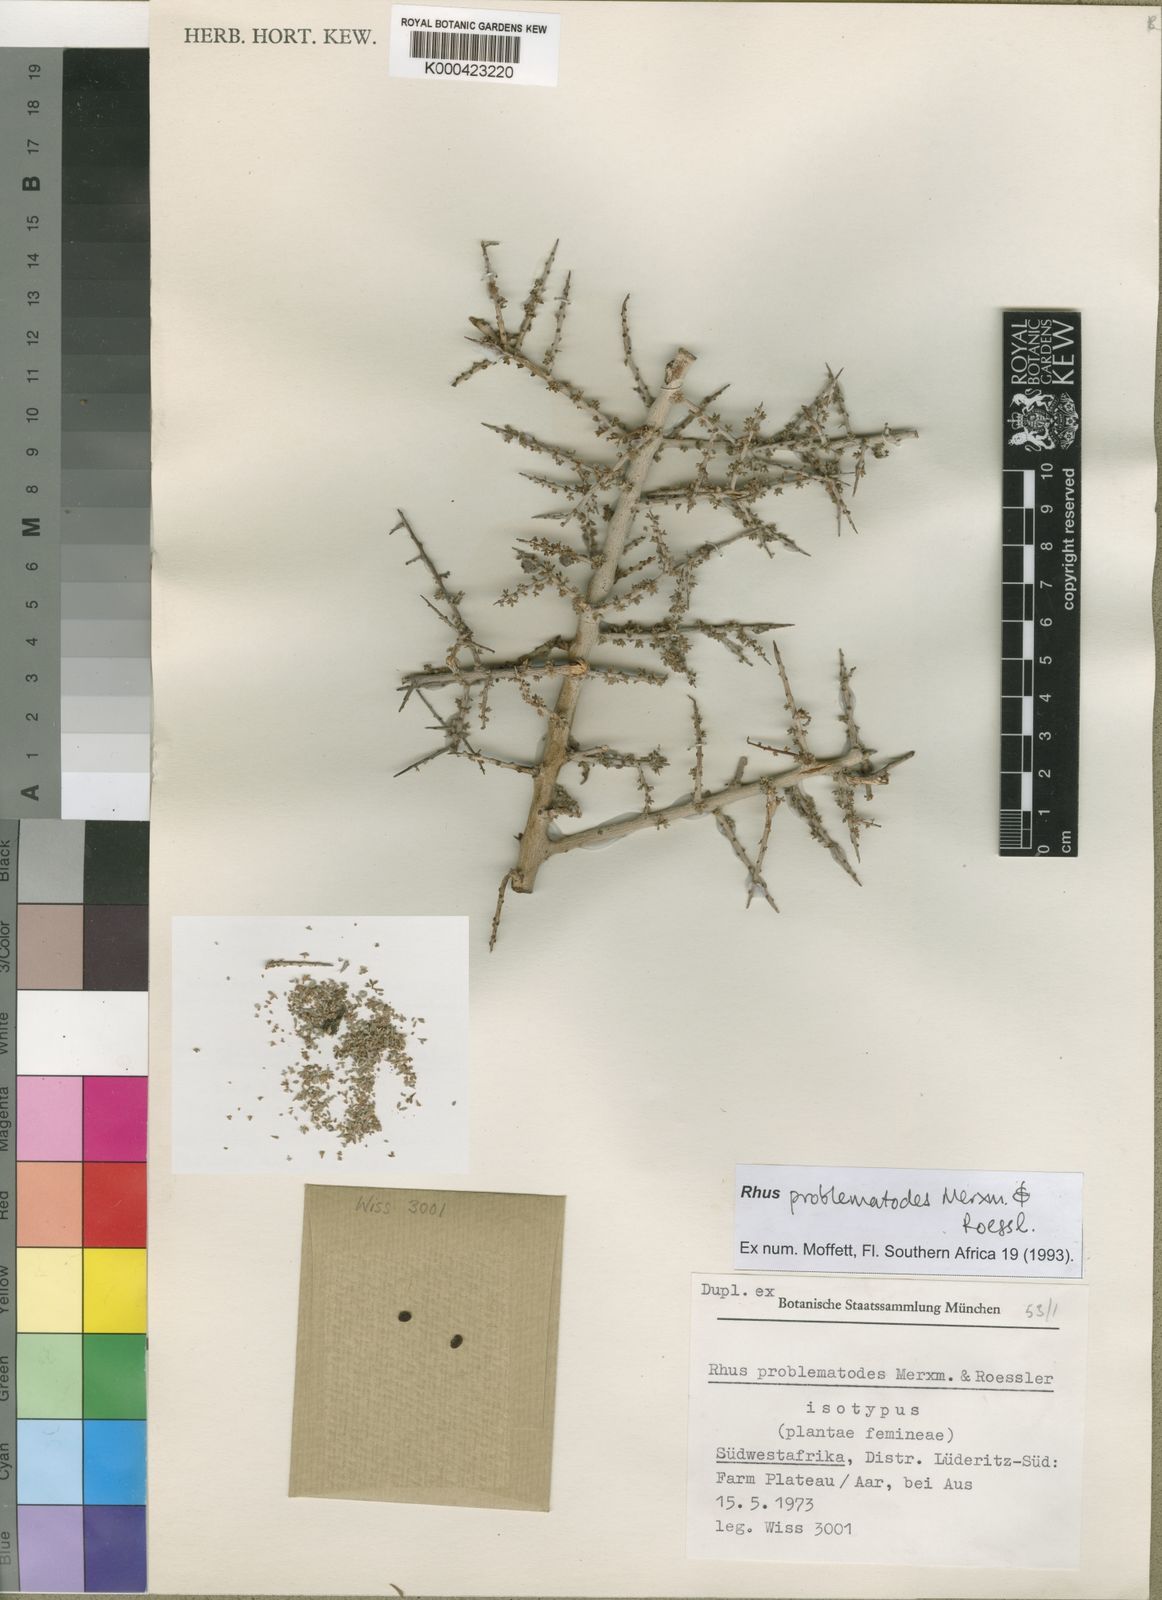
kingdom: Plantae
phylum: Tracheophyta
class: Magnoliopsida
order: Sapindales
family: Anacardiaceae
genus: Searsia
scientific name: Searsia problematodes
